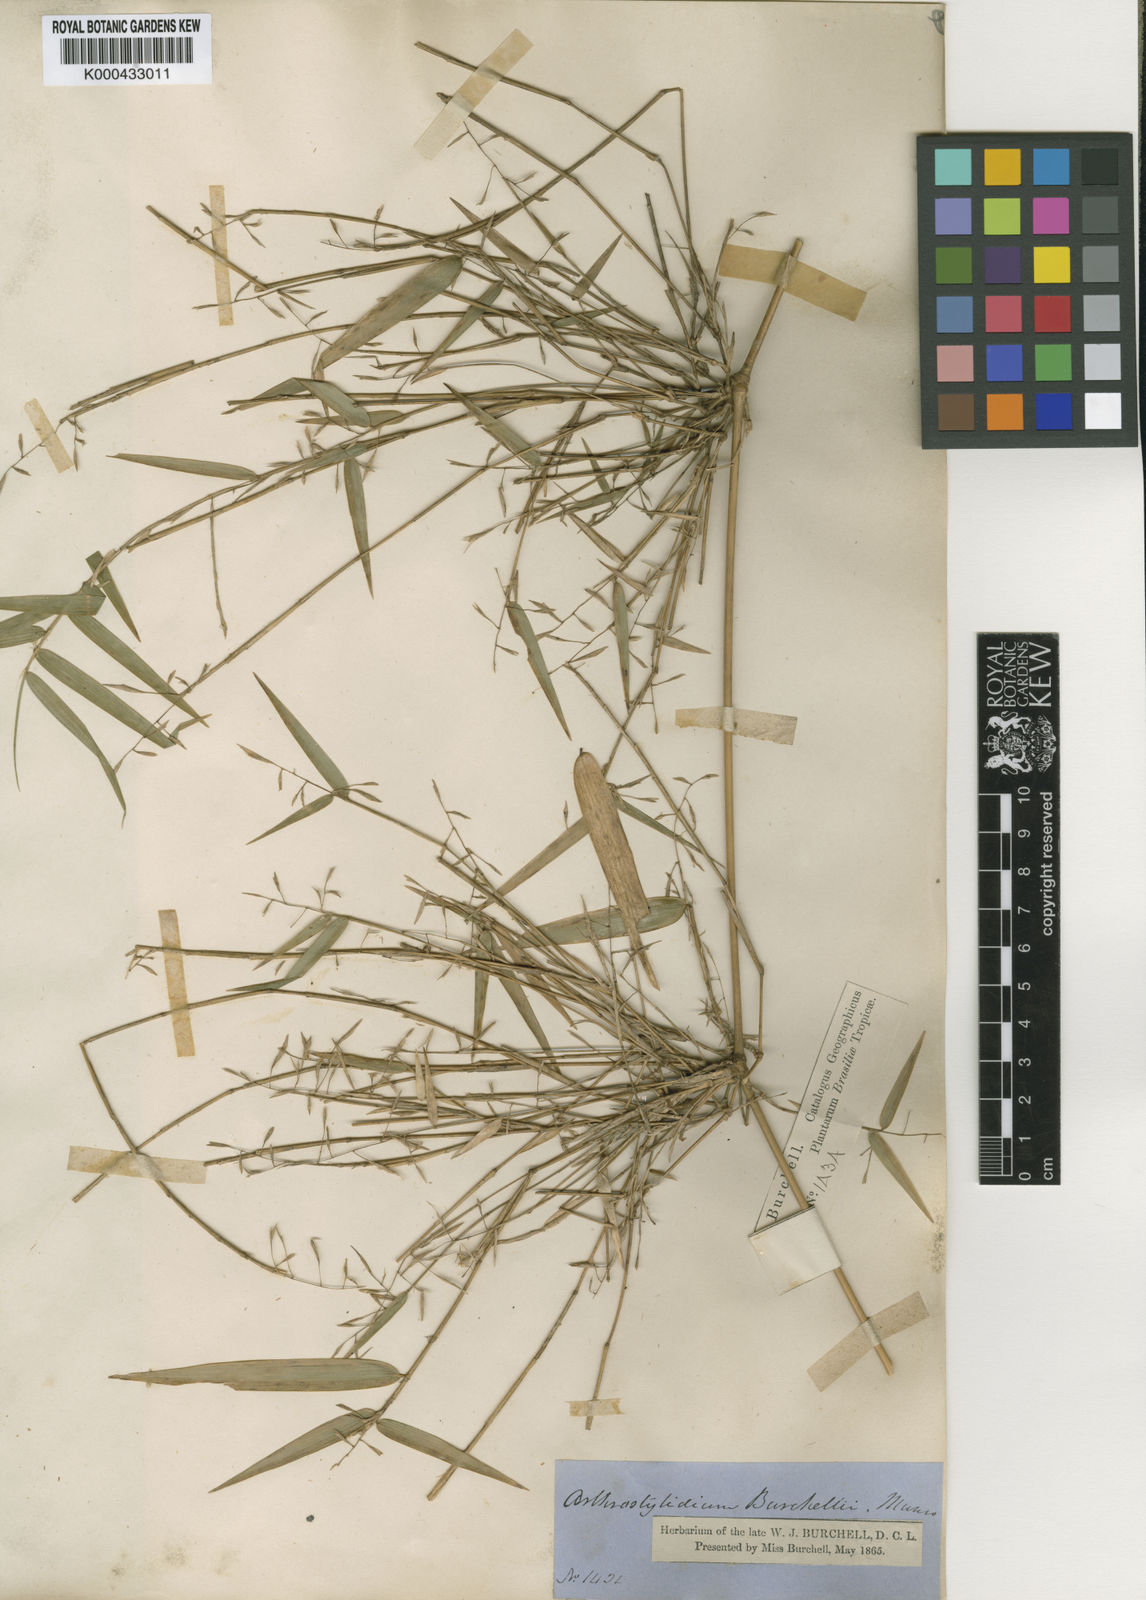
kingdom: Plantae
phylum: Tracheophyta
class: Liliopsida
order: Poales
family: Poaceae
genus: Colanthelia
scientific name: Colanthelia burchellii
